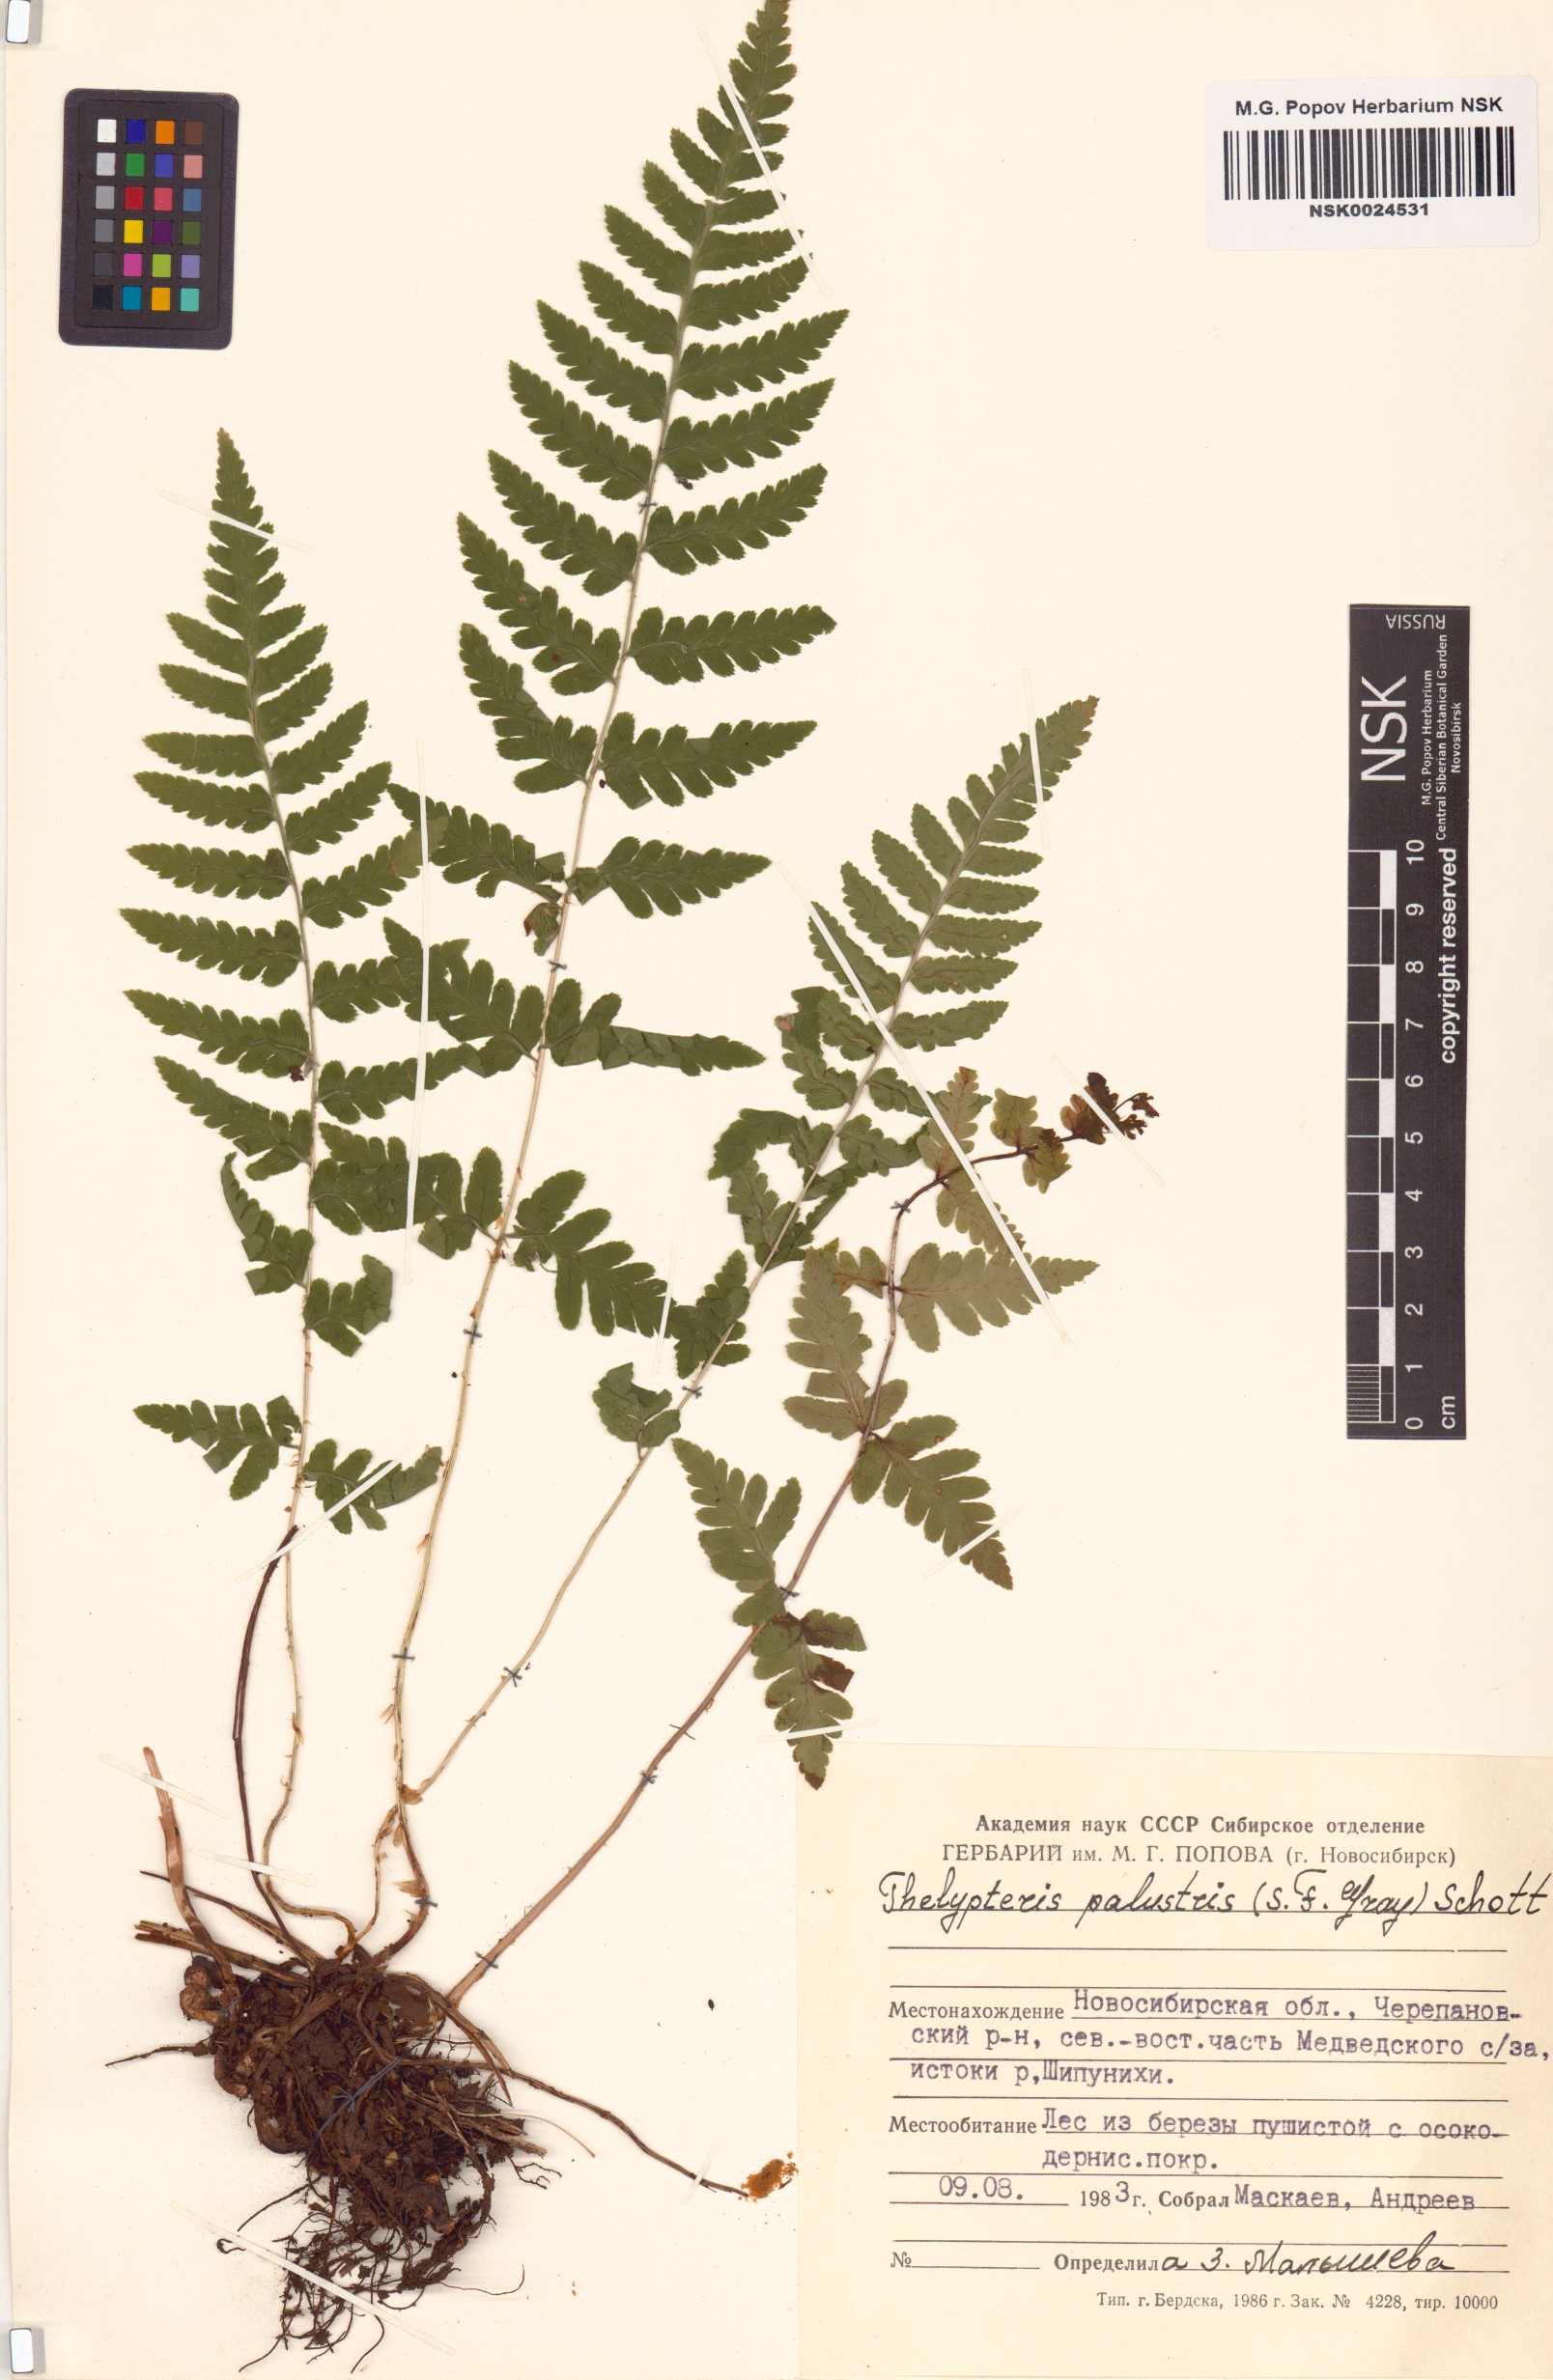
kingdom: Plantae
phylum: Tracheophyta
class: Polypodiopsida
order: Polypodiales
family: Thelypteridaceae
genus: Thelypteris
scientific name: Thelypteris palustris
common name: Marsh fern
